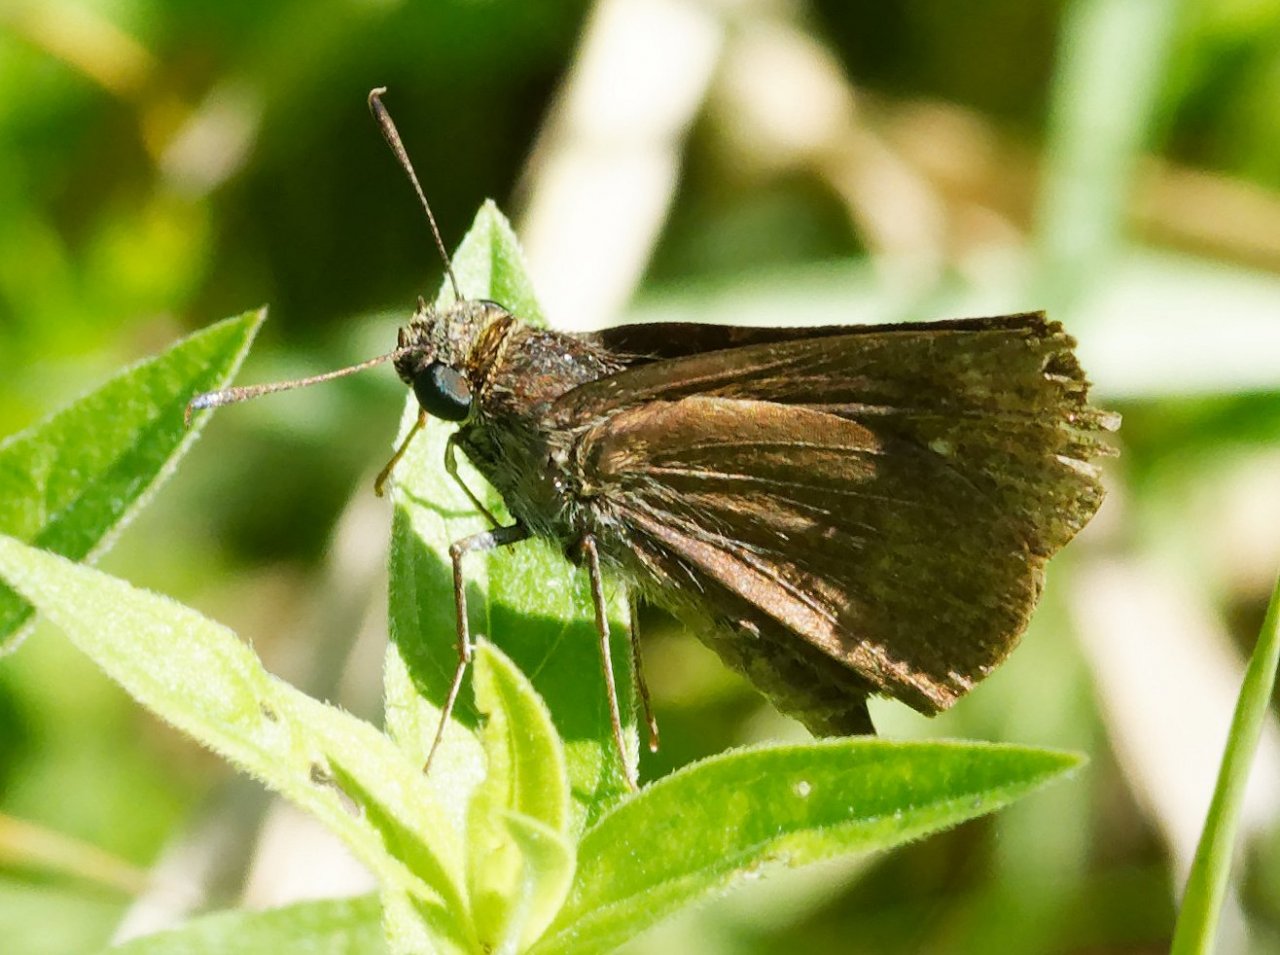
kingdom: Animalia
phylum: Arthropoda
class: Insecta
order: Lepidoptera
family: Hesperiidae
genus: Euphyes
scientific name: Euphyes vestris
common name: Dun Skipper
